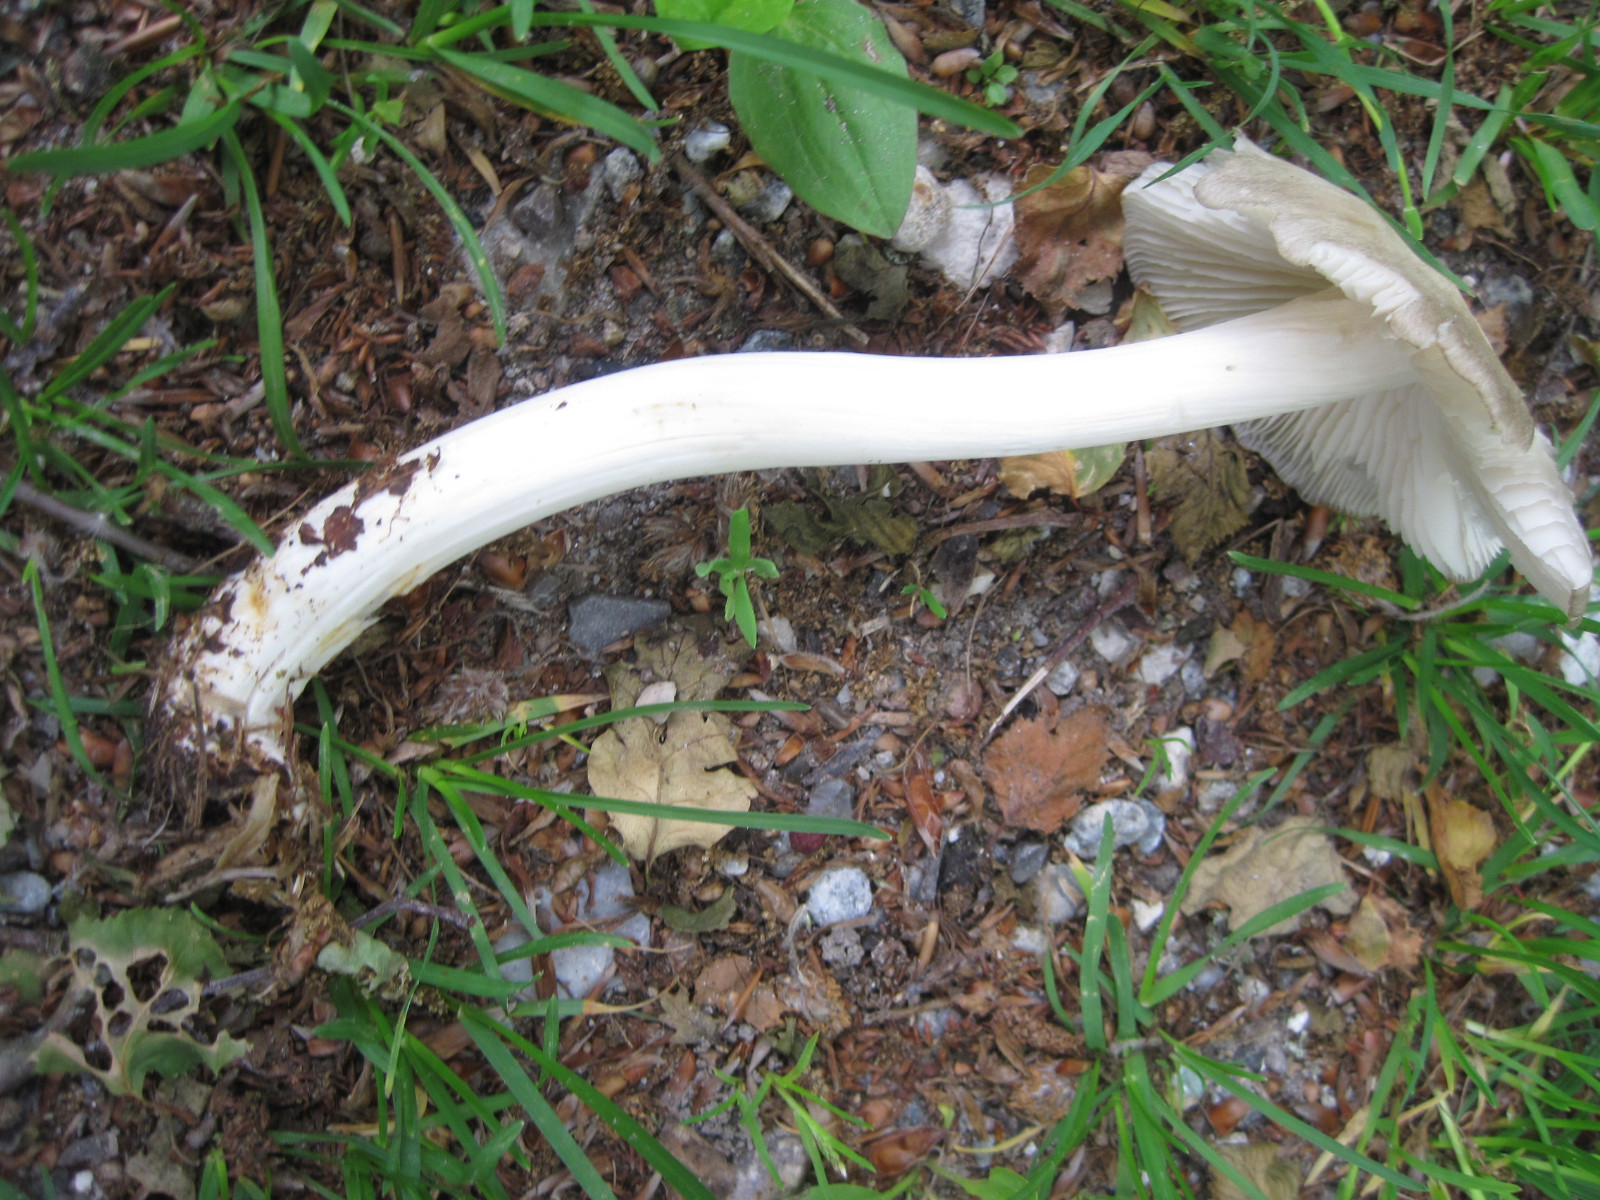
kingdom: Fungi
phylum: Basidiomycota
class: Agaricomycetes
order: Agaricales
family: Tricholomataceae
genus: Megacollybia
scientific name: Megacollybia platyphylla
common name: bredbladet væbnerhat
